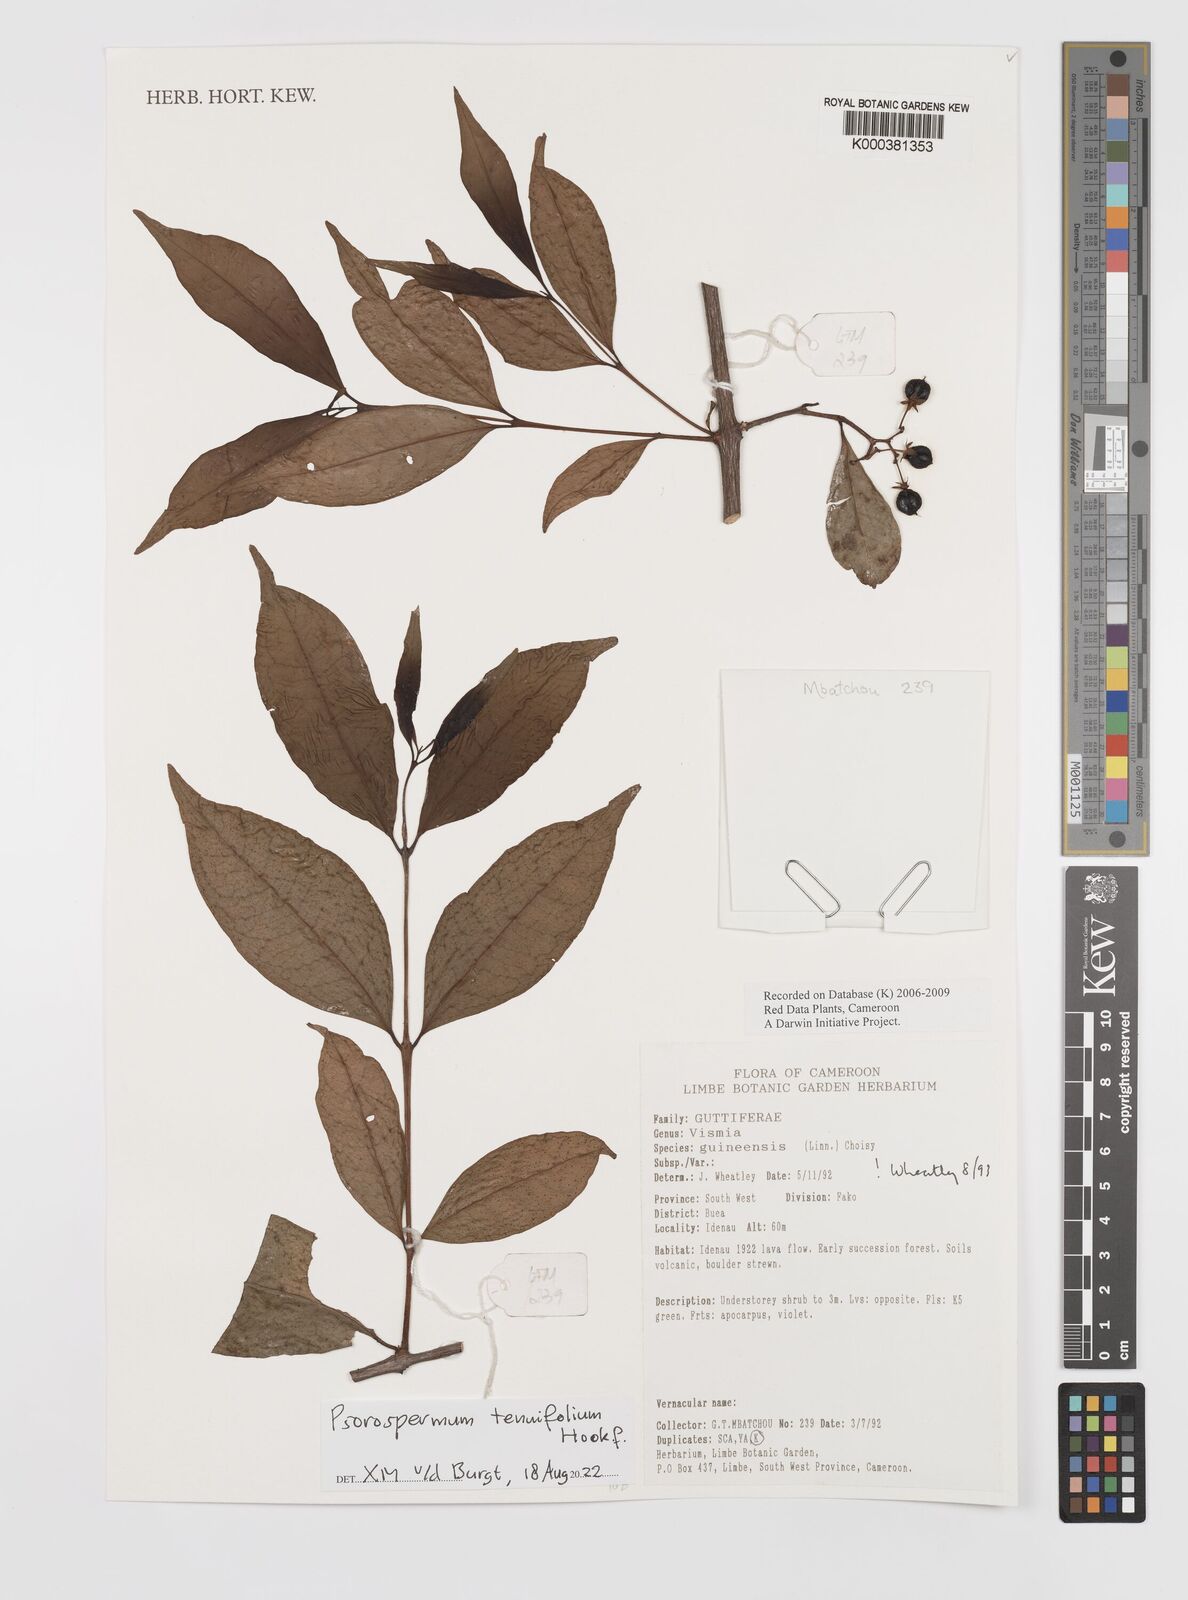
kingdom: Plantae
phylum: Tracheophyta
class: Magnoliopsida
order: Malpighiales
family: Hypericaceae
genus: Psorospermum
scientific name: Psorospermum guineense
